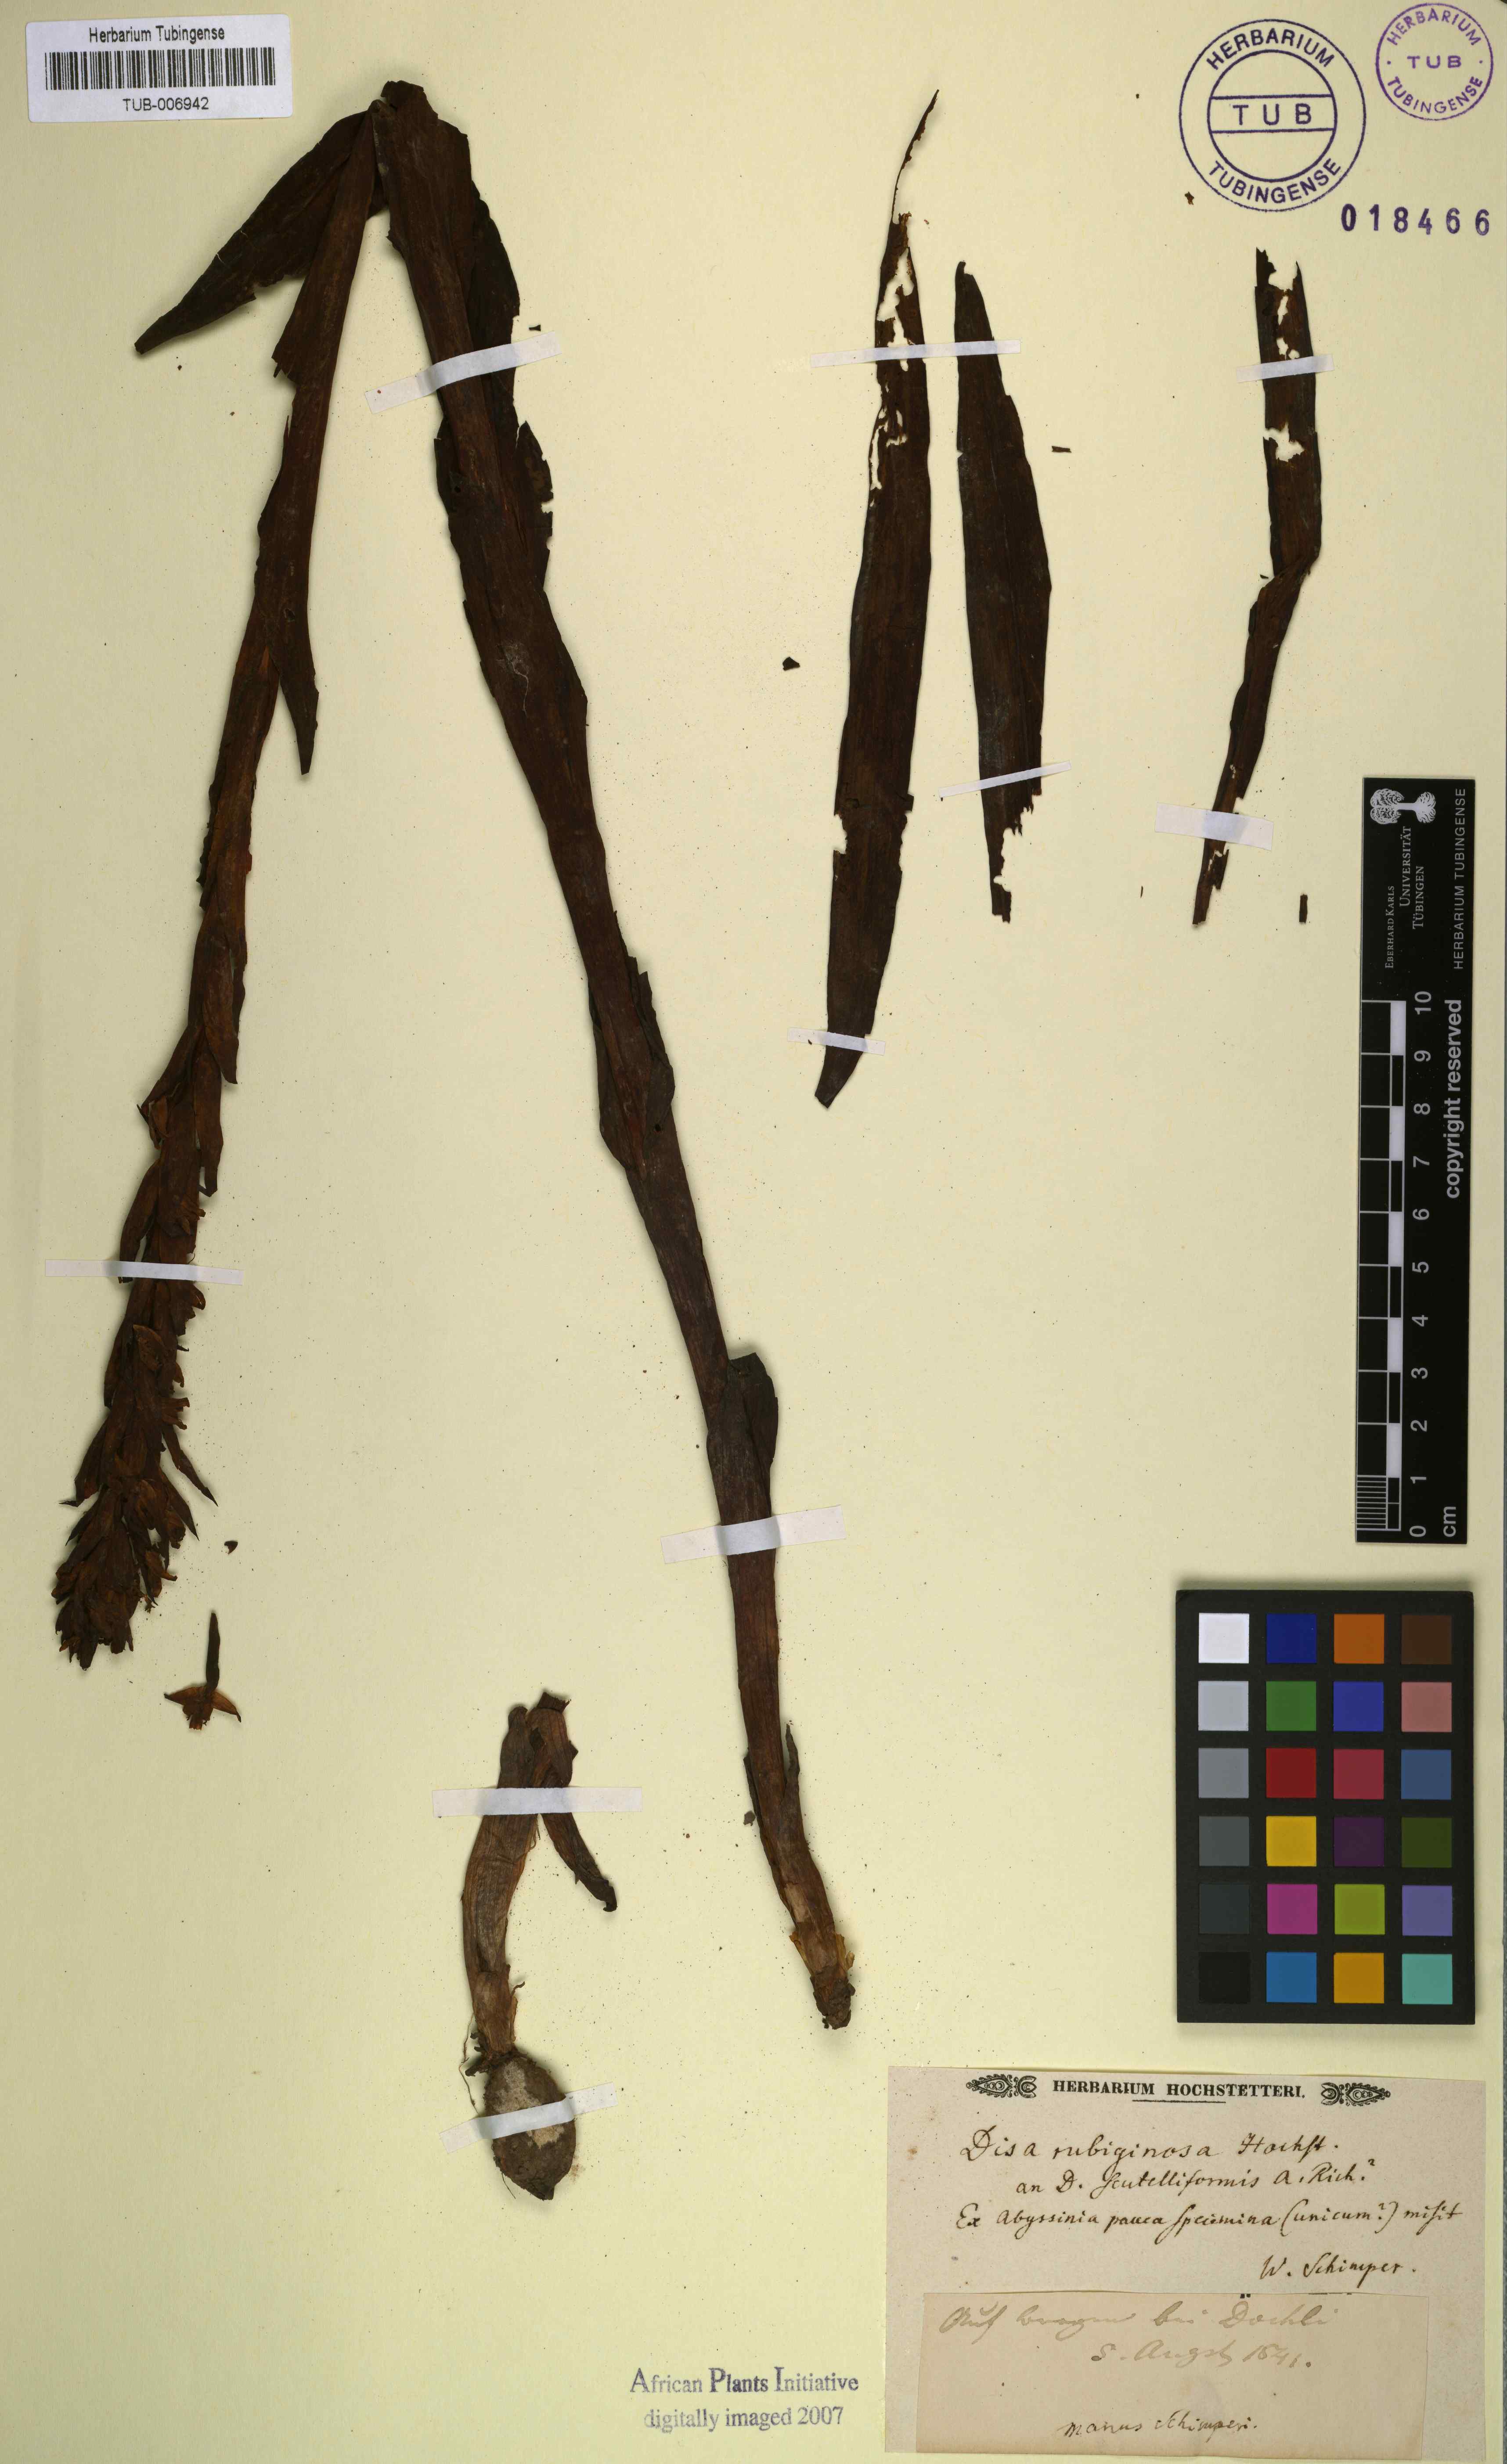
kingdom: Plantae
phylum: Tracheophyta
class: Liliopsida
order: Asparagales
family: Orchidaceae
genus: Disa
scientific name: Disa
